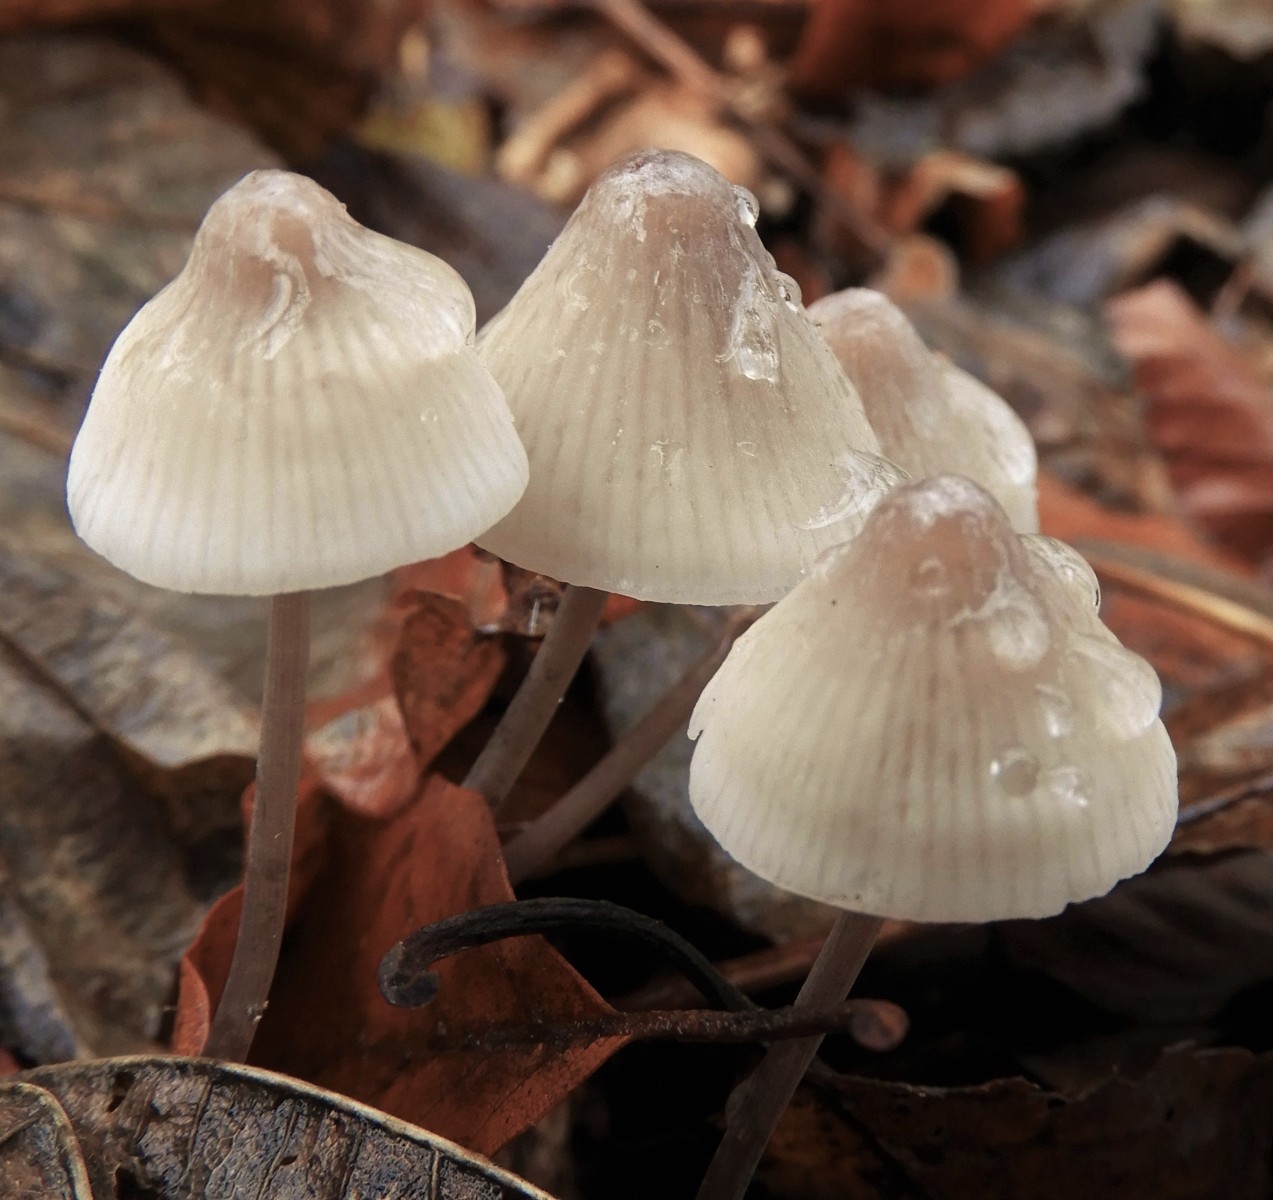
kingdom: Fungi
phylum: Basidiomycota
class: Agaricomycetes
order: Agaricales
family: Mycenaceae
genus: Mycena
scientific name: Mycena
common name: huesvamp
